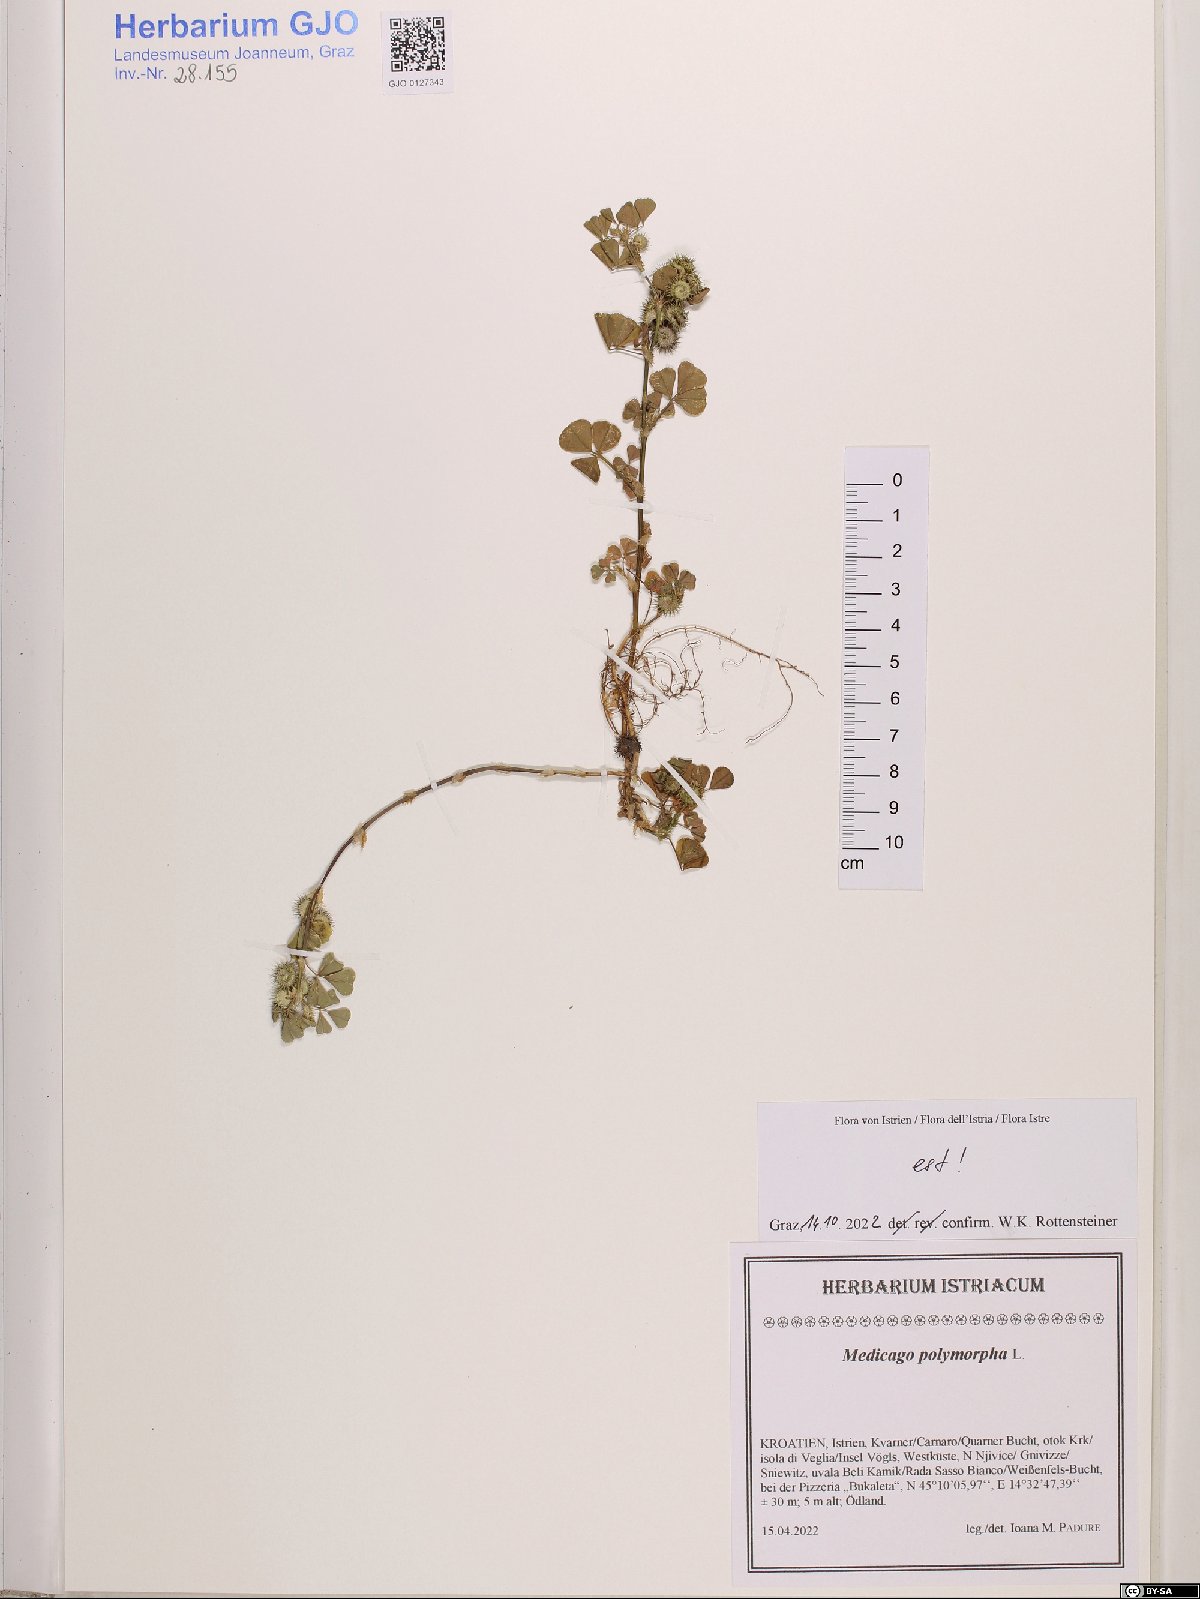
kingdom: Plantae
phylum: Tracheophyta
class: Magnoliopsida
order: Fabales
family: Fabaceae
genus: Medicago
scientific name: Medicago polymorpha
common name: Burclover
